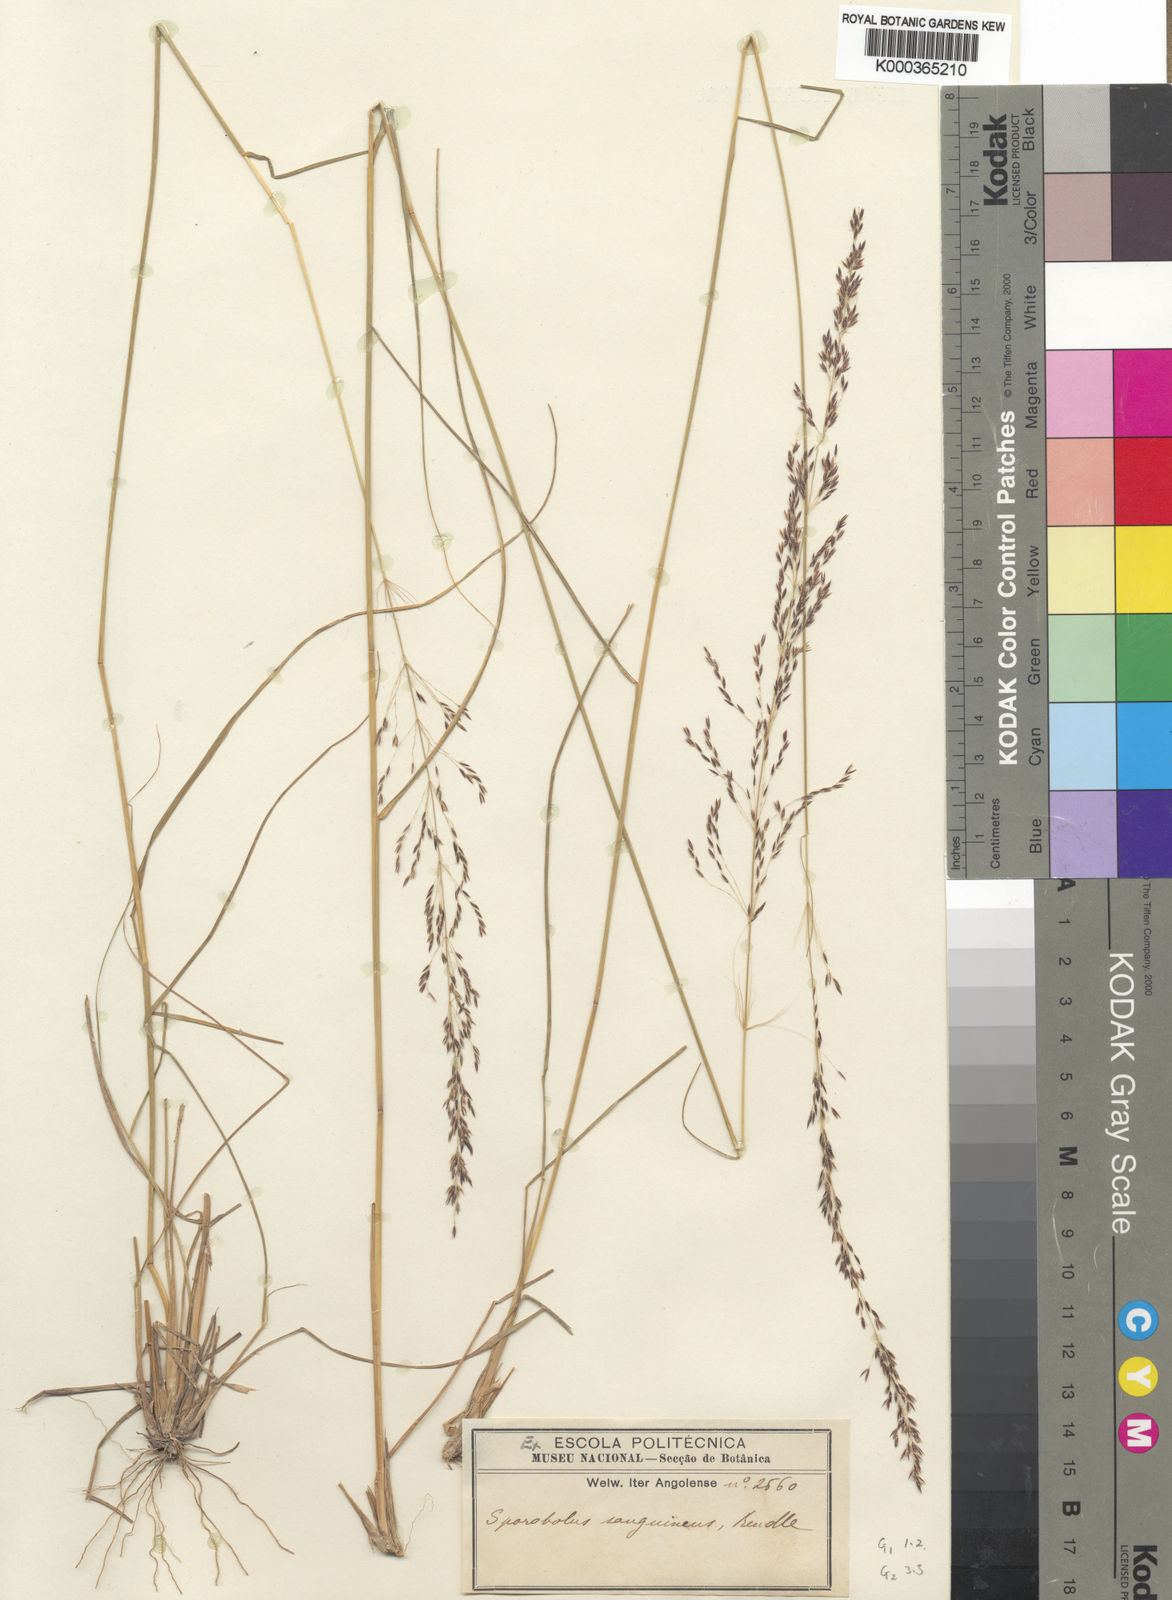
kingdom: Plantae
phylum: Tracheophyta
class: Liliopsida
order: Poales
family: Poaceae
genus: Sporobolus
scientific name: Sporobolus sanguineus
